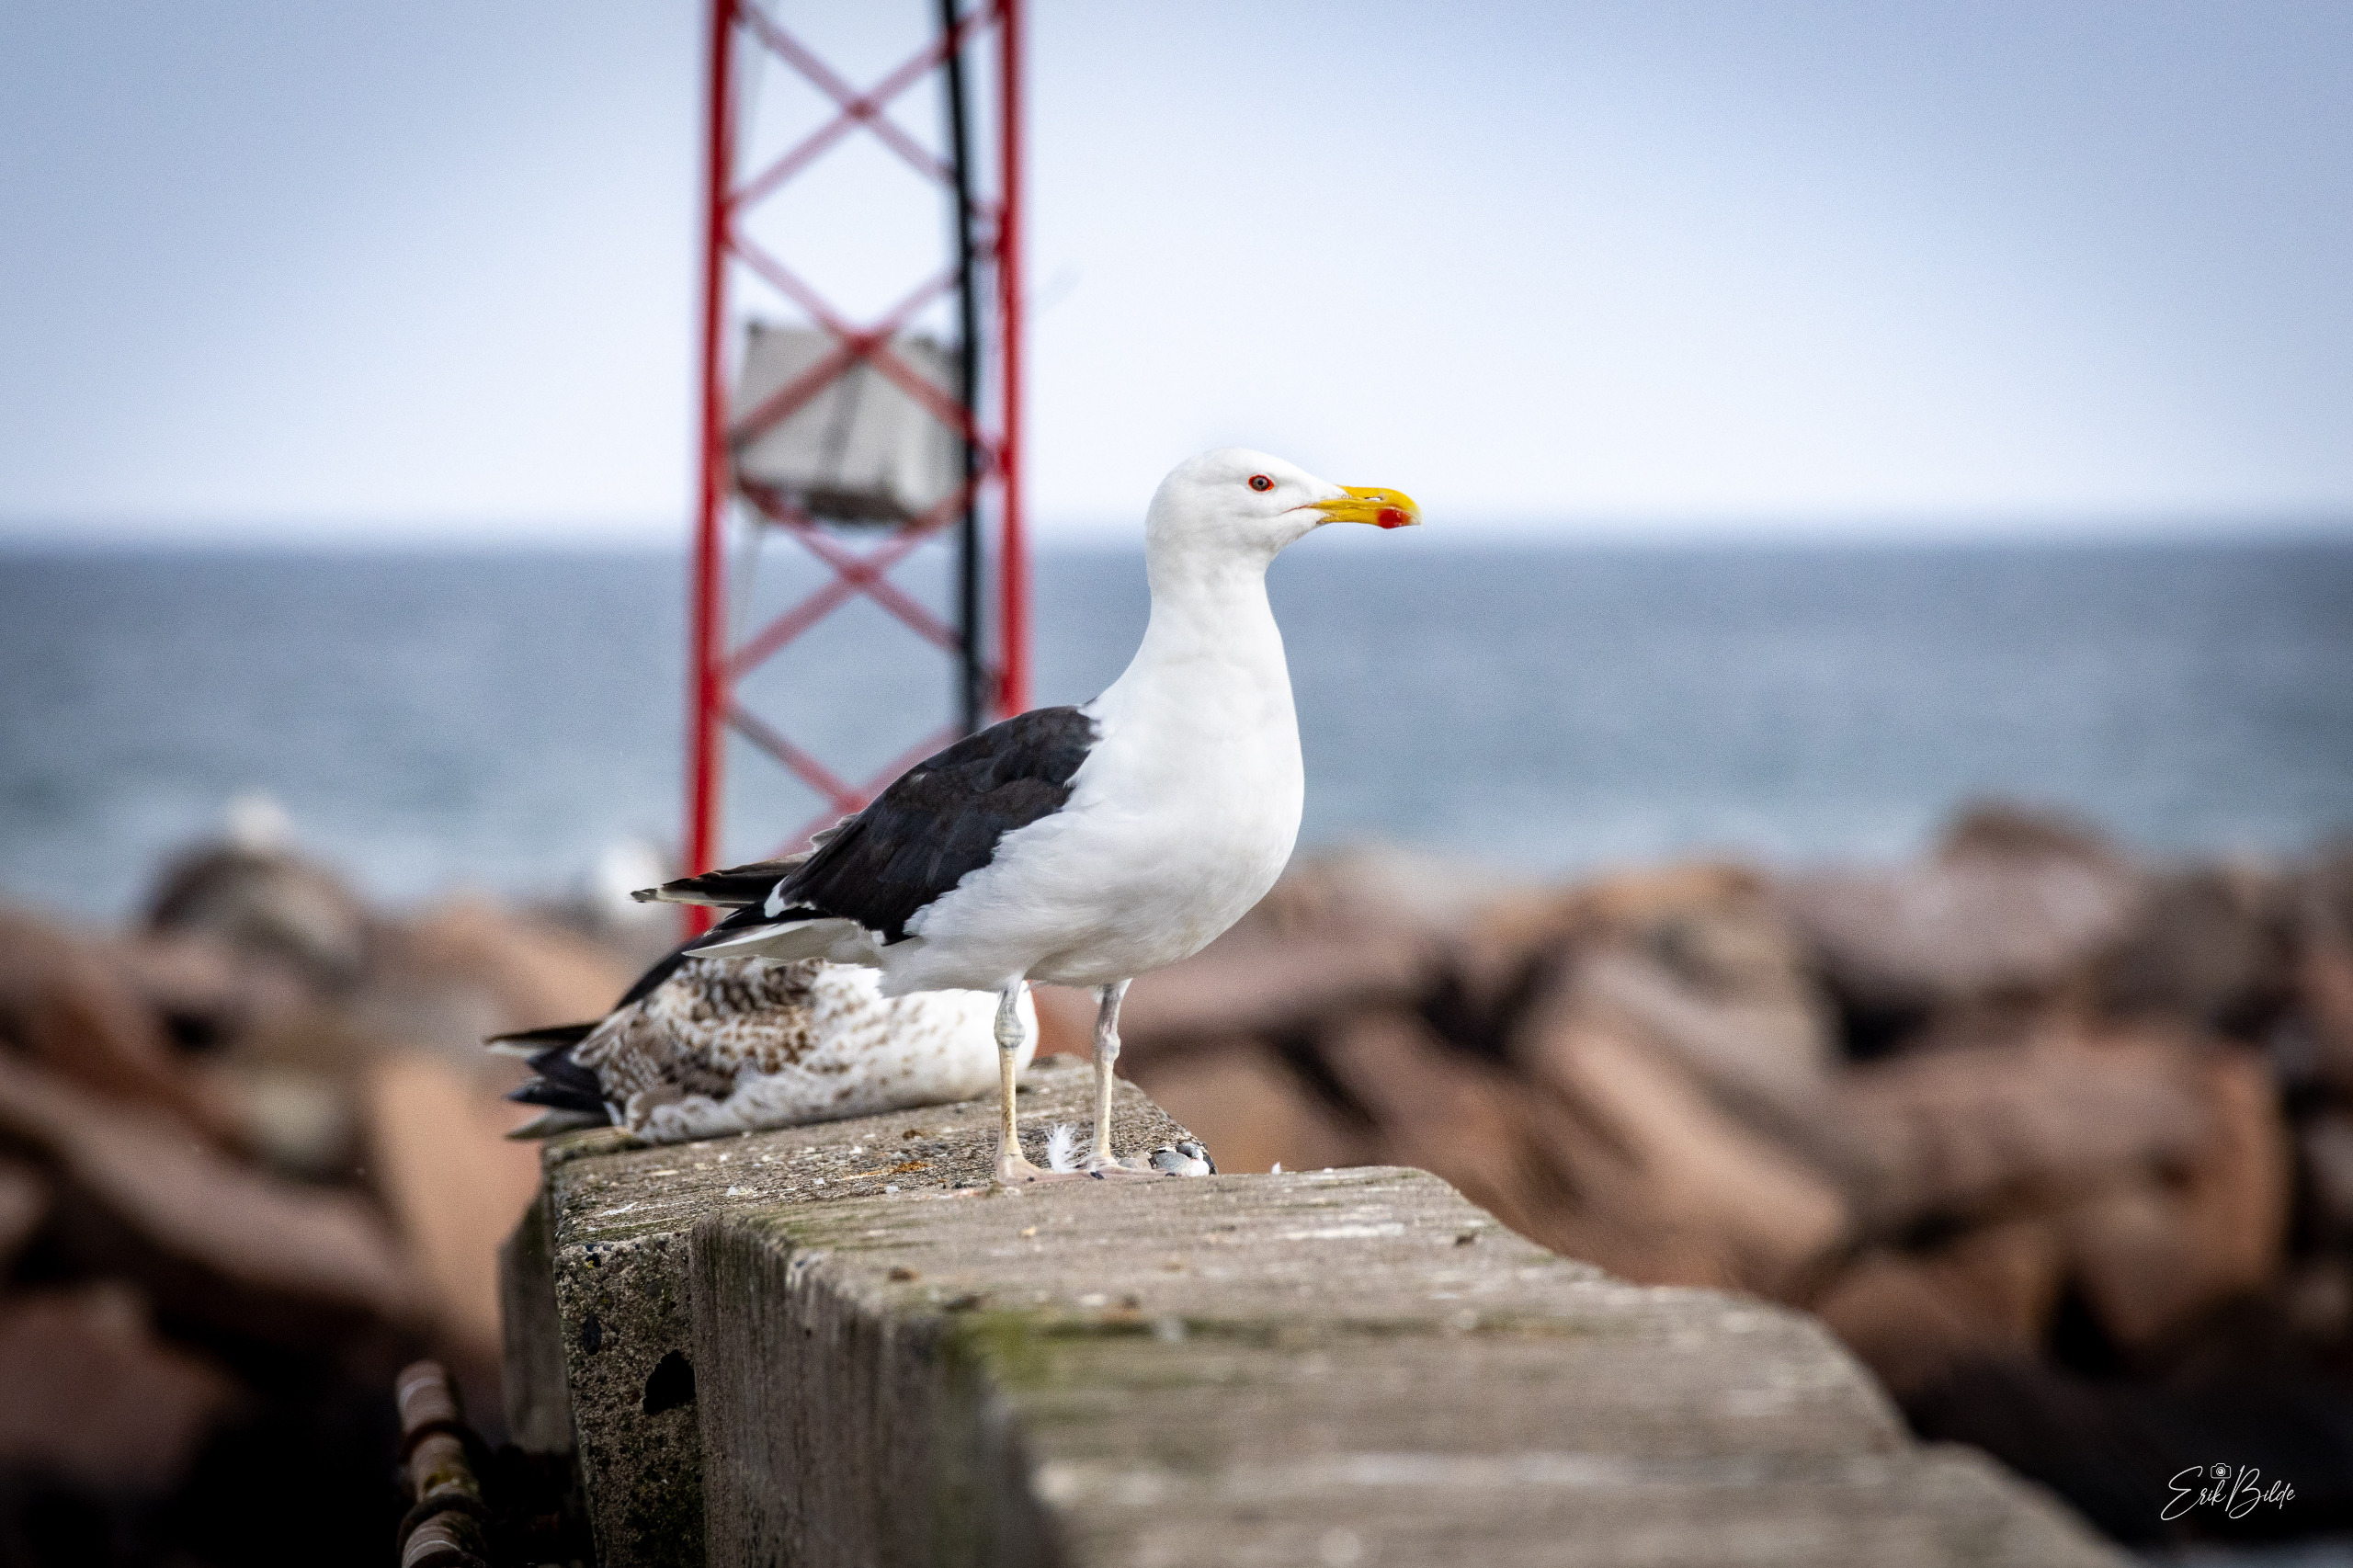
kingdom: Animalia
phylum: Chordata
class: Aves
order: Charadriiformes
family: Laridae
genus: Larus
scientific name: Larus marinus
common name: Svartbag
